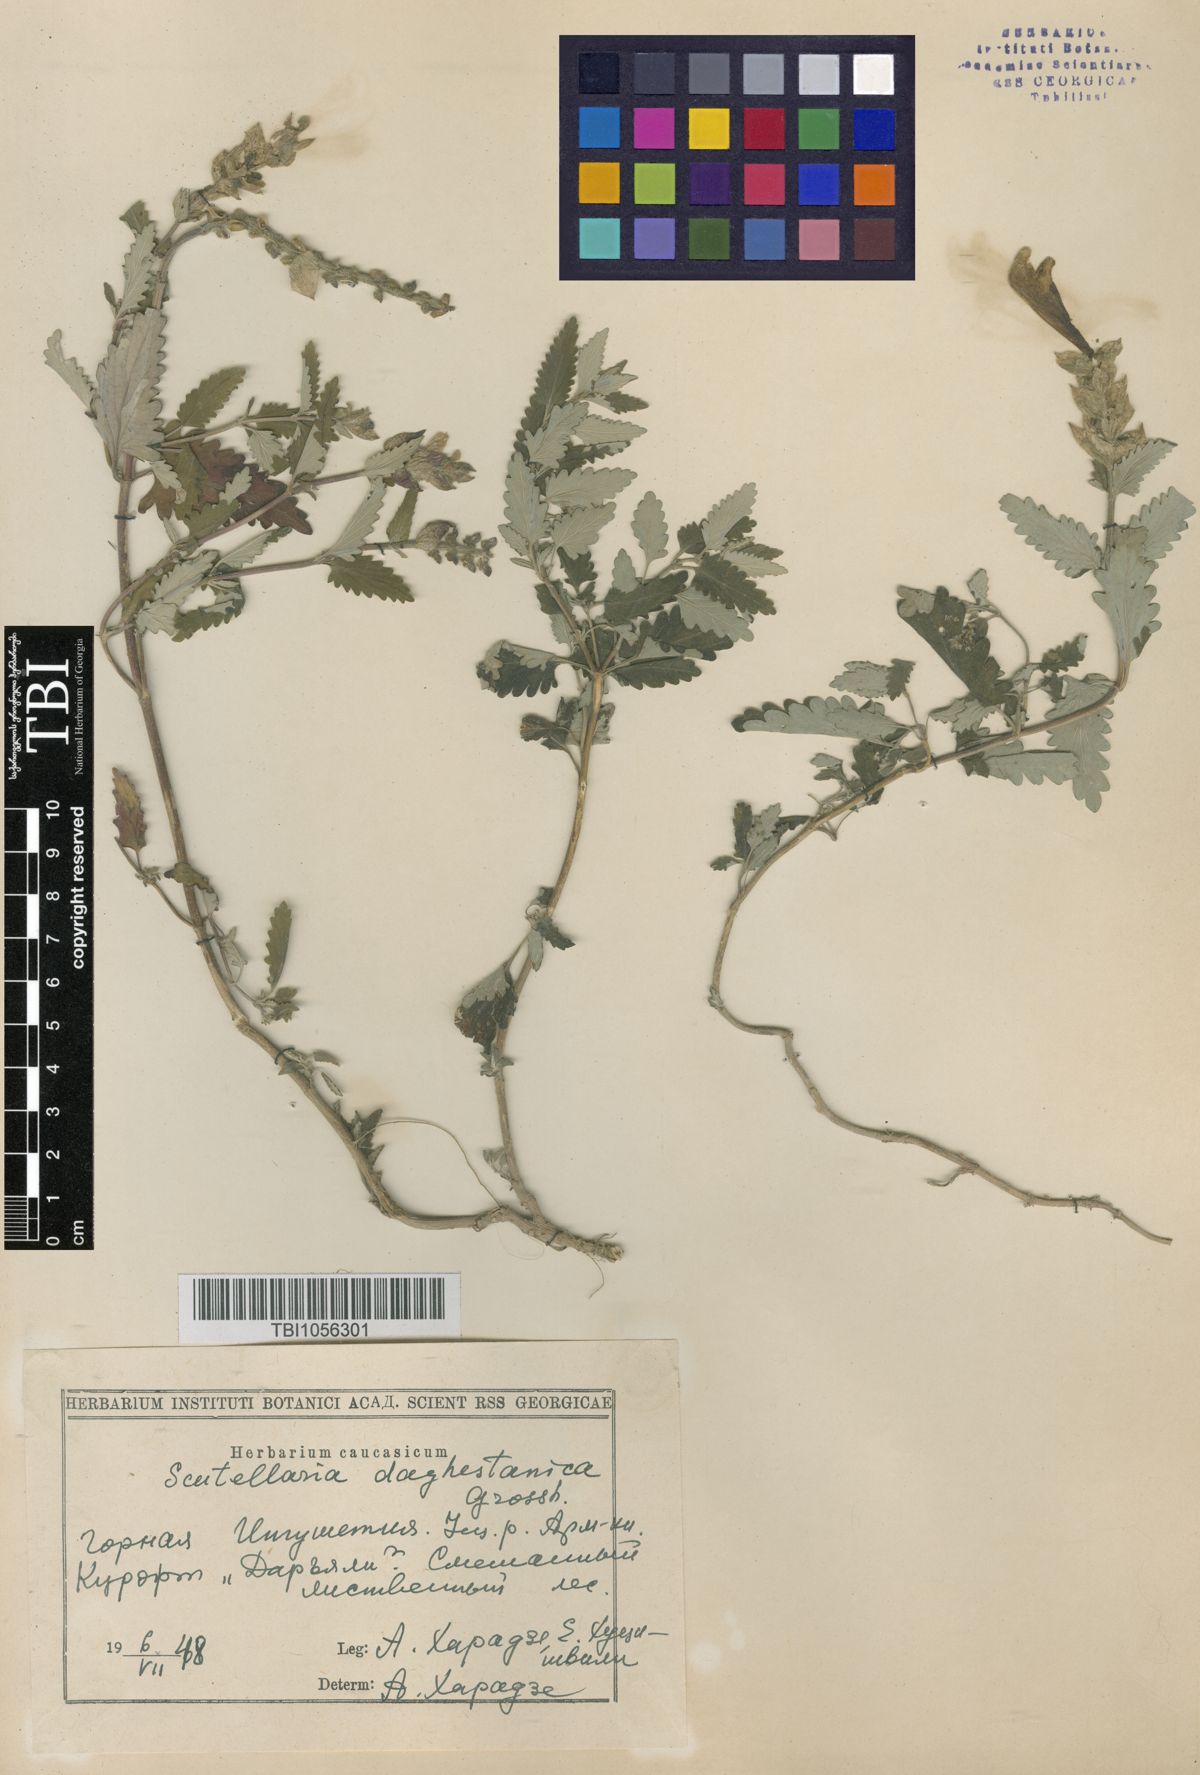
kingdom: Plantae
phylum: Tracheophyta
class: Magnoliopsida
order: Lamiales
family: Lamiaceae
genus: Scutellaria
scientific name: Scutellaria daghestanica
